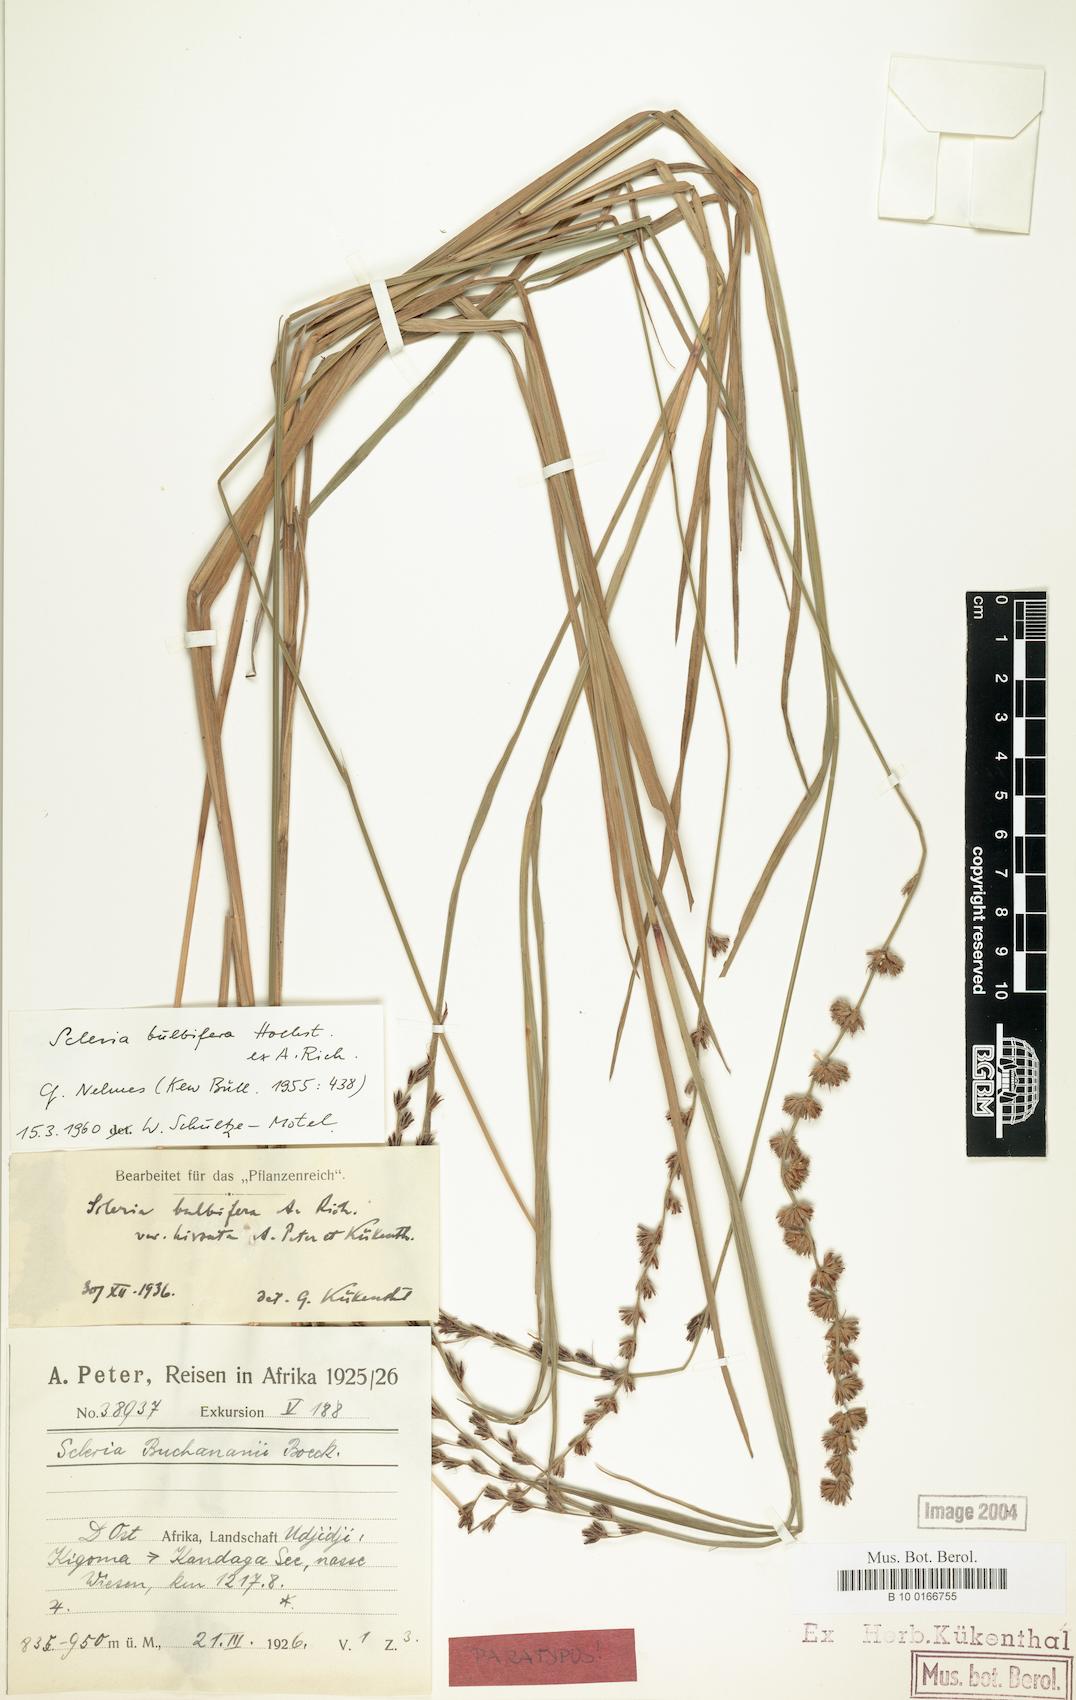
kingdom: Plantae
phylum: Tracheophyta
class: Liliopsida
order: Poales
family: Cyperaceae
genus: Scleria
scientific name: Scleria bulbifera
